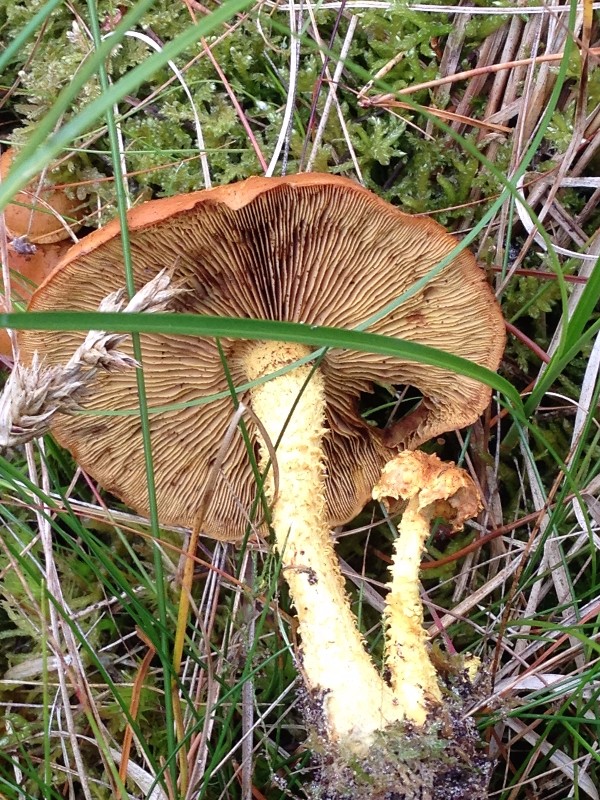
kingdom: Fungi
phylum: Basidiomycota
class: Agaricomycetes
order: Agaricales
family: Strophariaceae
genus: Pholiota
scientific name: Pholiota flammans
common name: flamme-skælhat
